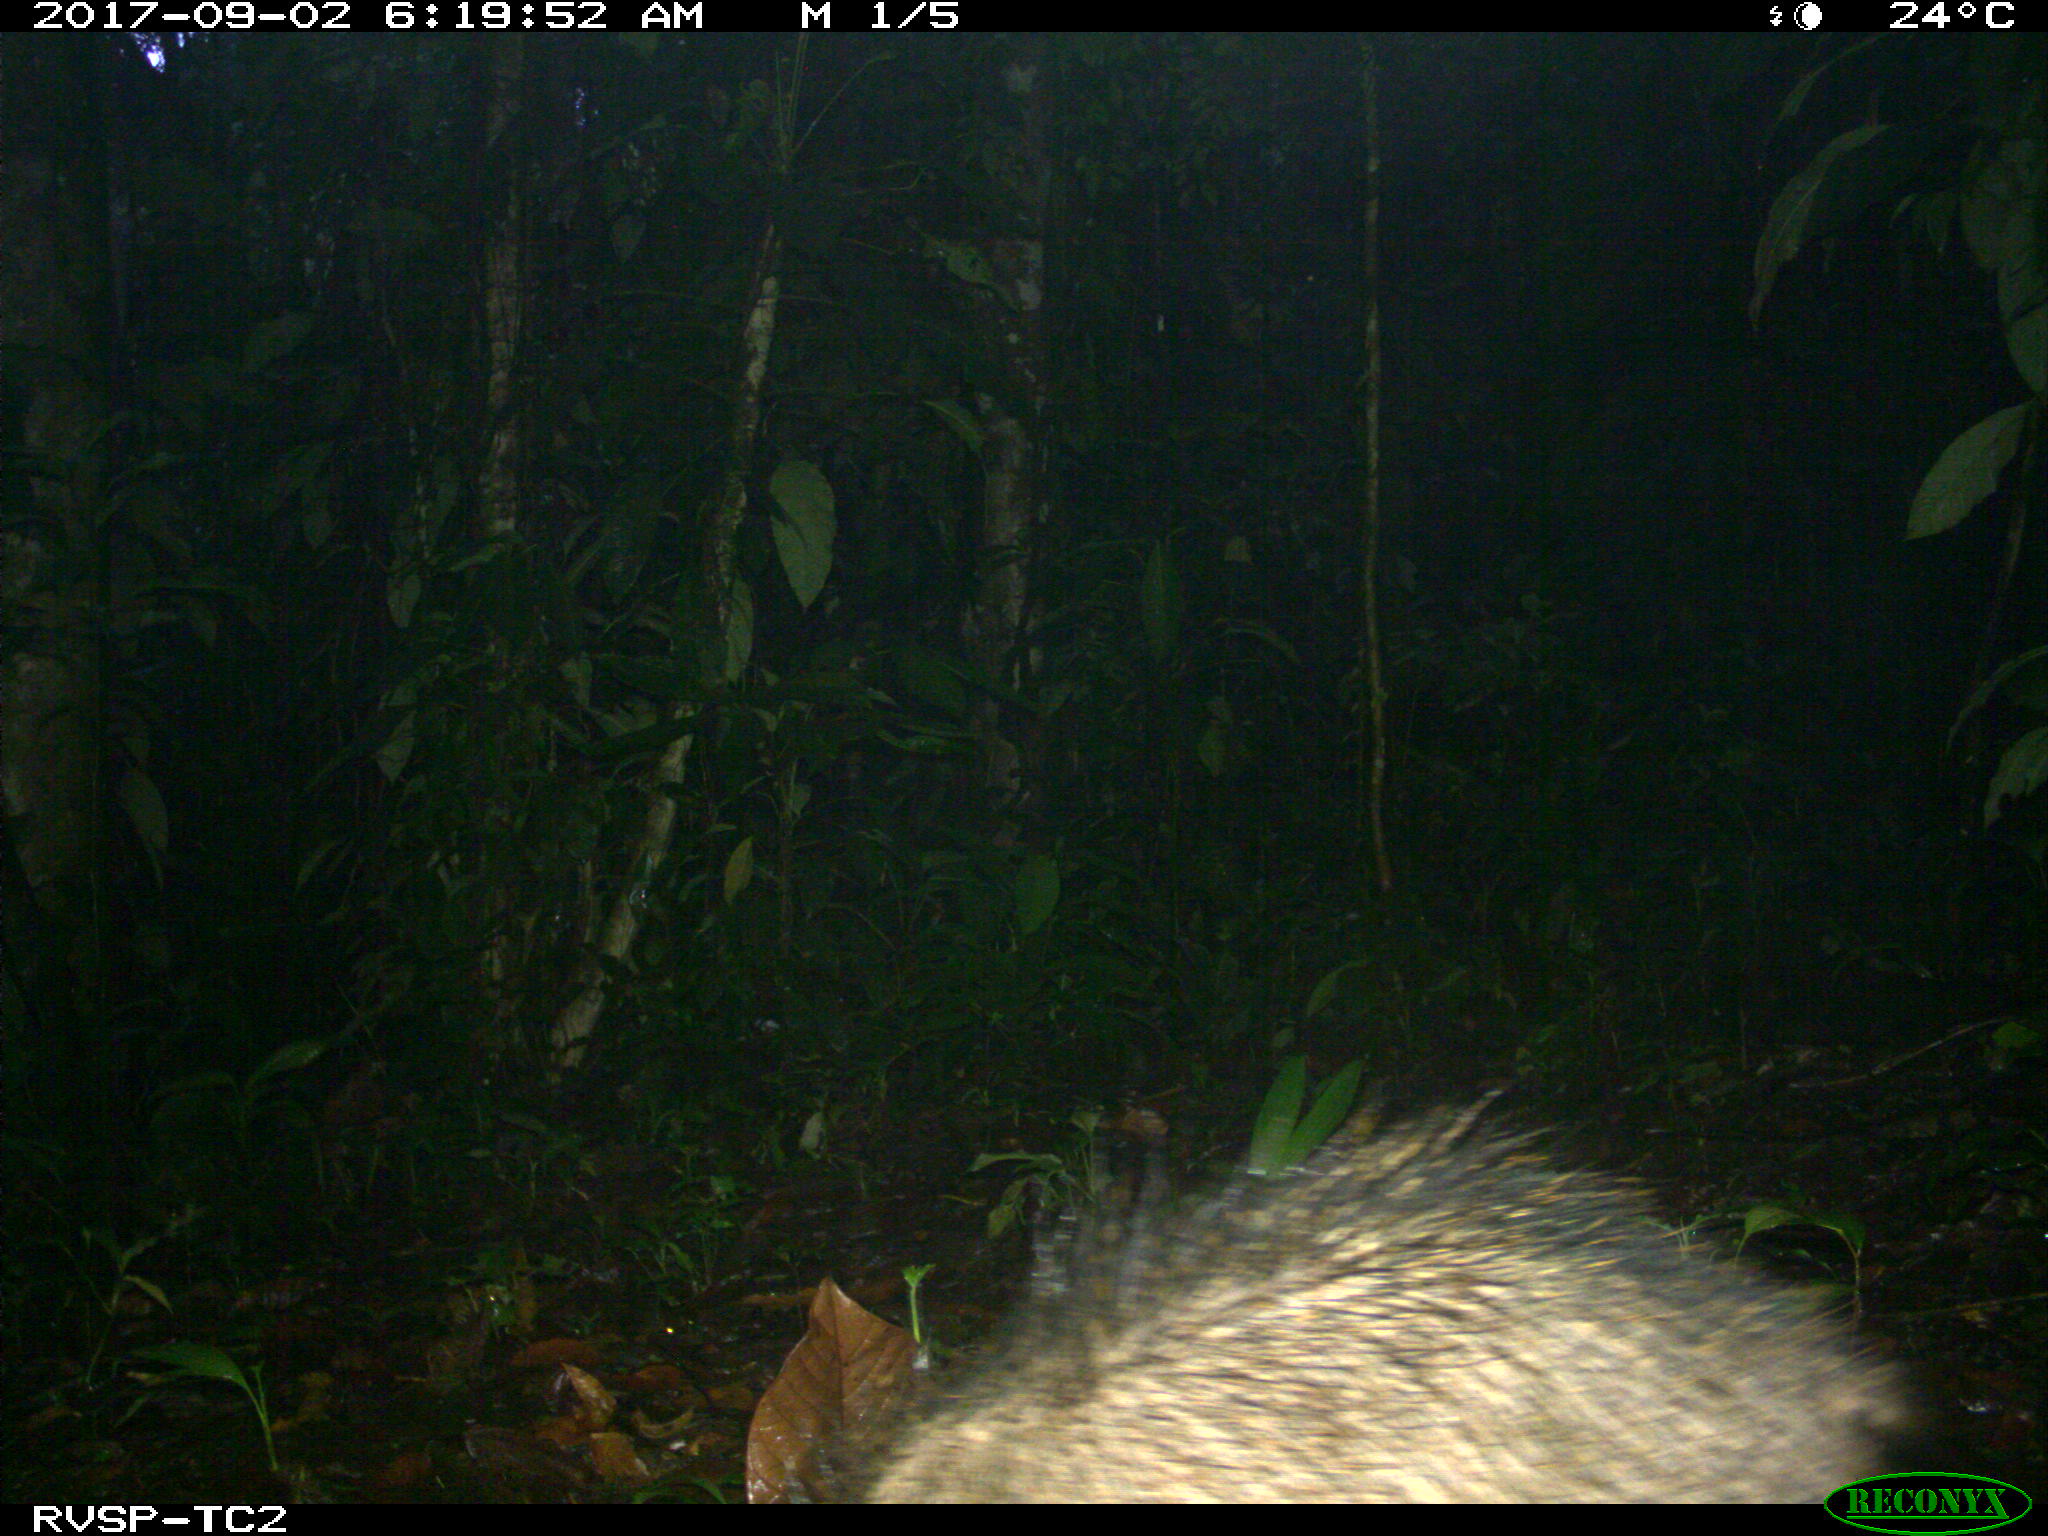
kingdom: Animalia
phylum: Chordata
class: Mammalia
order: Artiodactyla
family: Tayassuidae
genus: Tayassu
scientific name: Tayassu pecari
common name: White-lipped peccary
